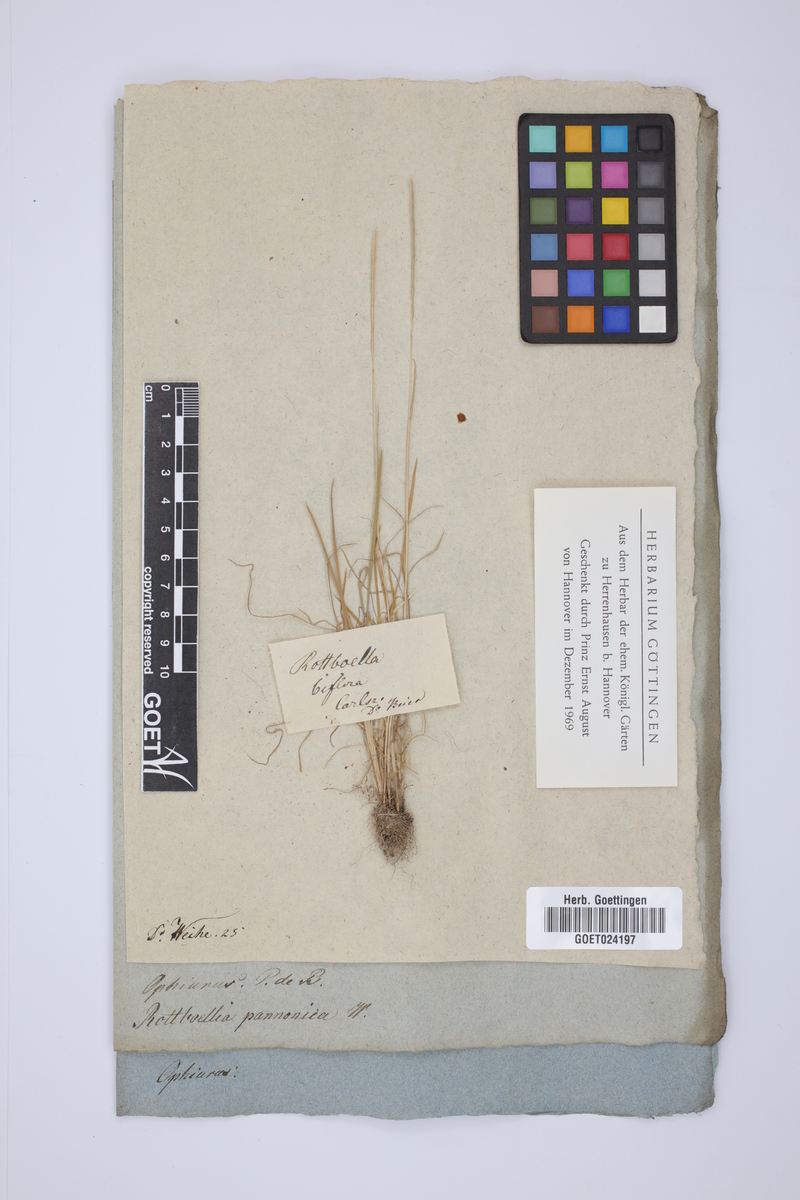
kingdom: Plantae
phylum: Tracheophyta
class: Liliopsida
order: Poales
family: Poaceae
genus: Pholiurus
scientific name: Pholiurus pannonicus
